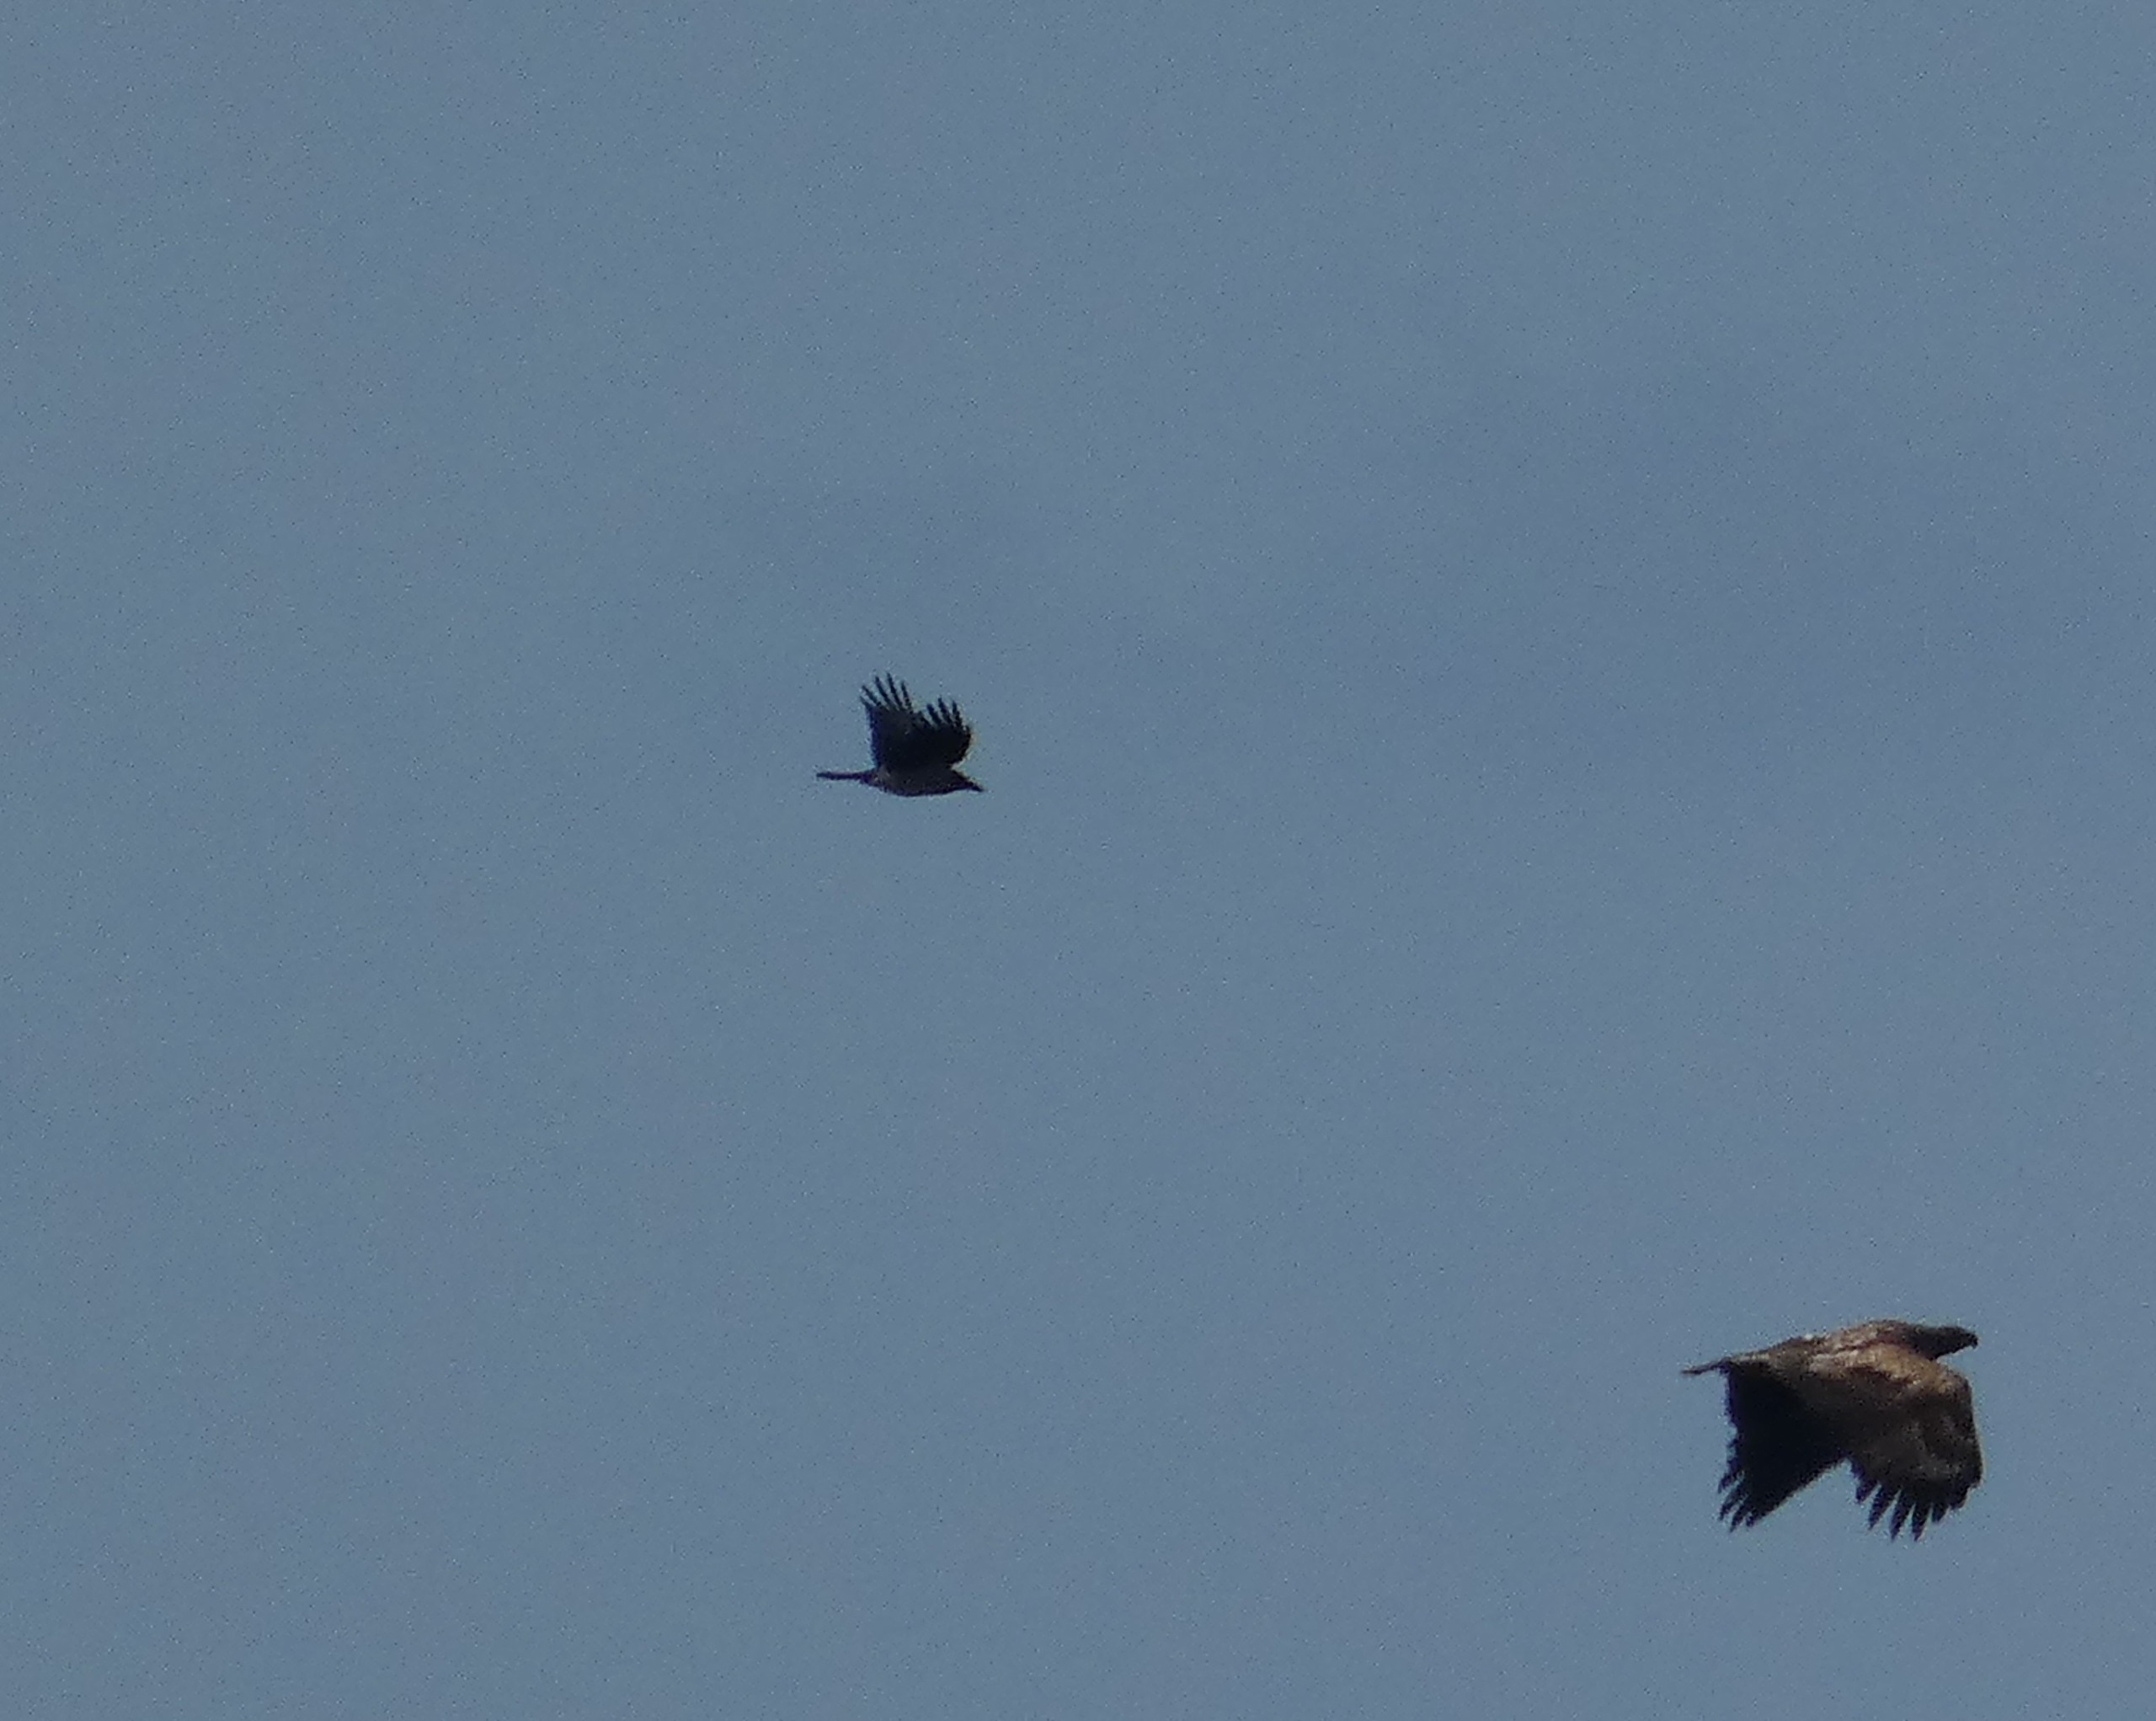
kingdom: Animalia
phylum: Chordata
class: Aves
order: Passeriformes
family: Corvidae
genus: Corvus
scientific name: Corvus cornix
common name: Gråkrage
